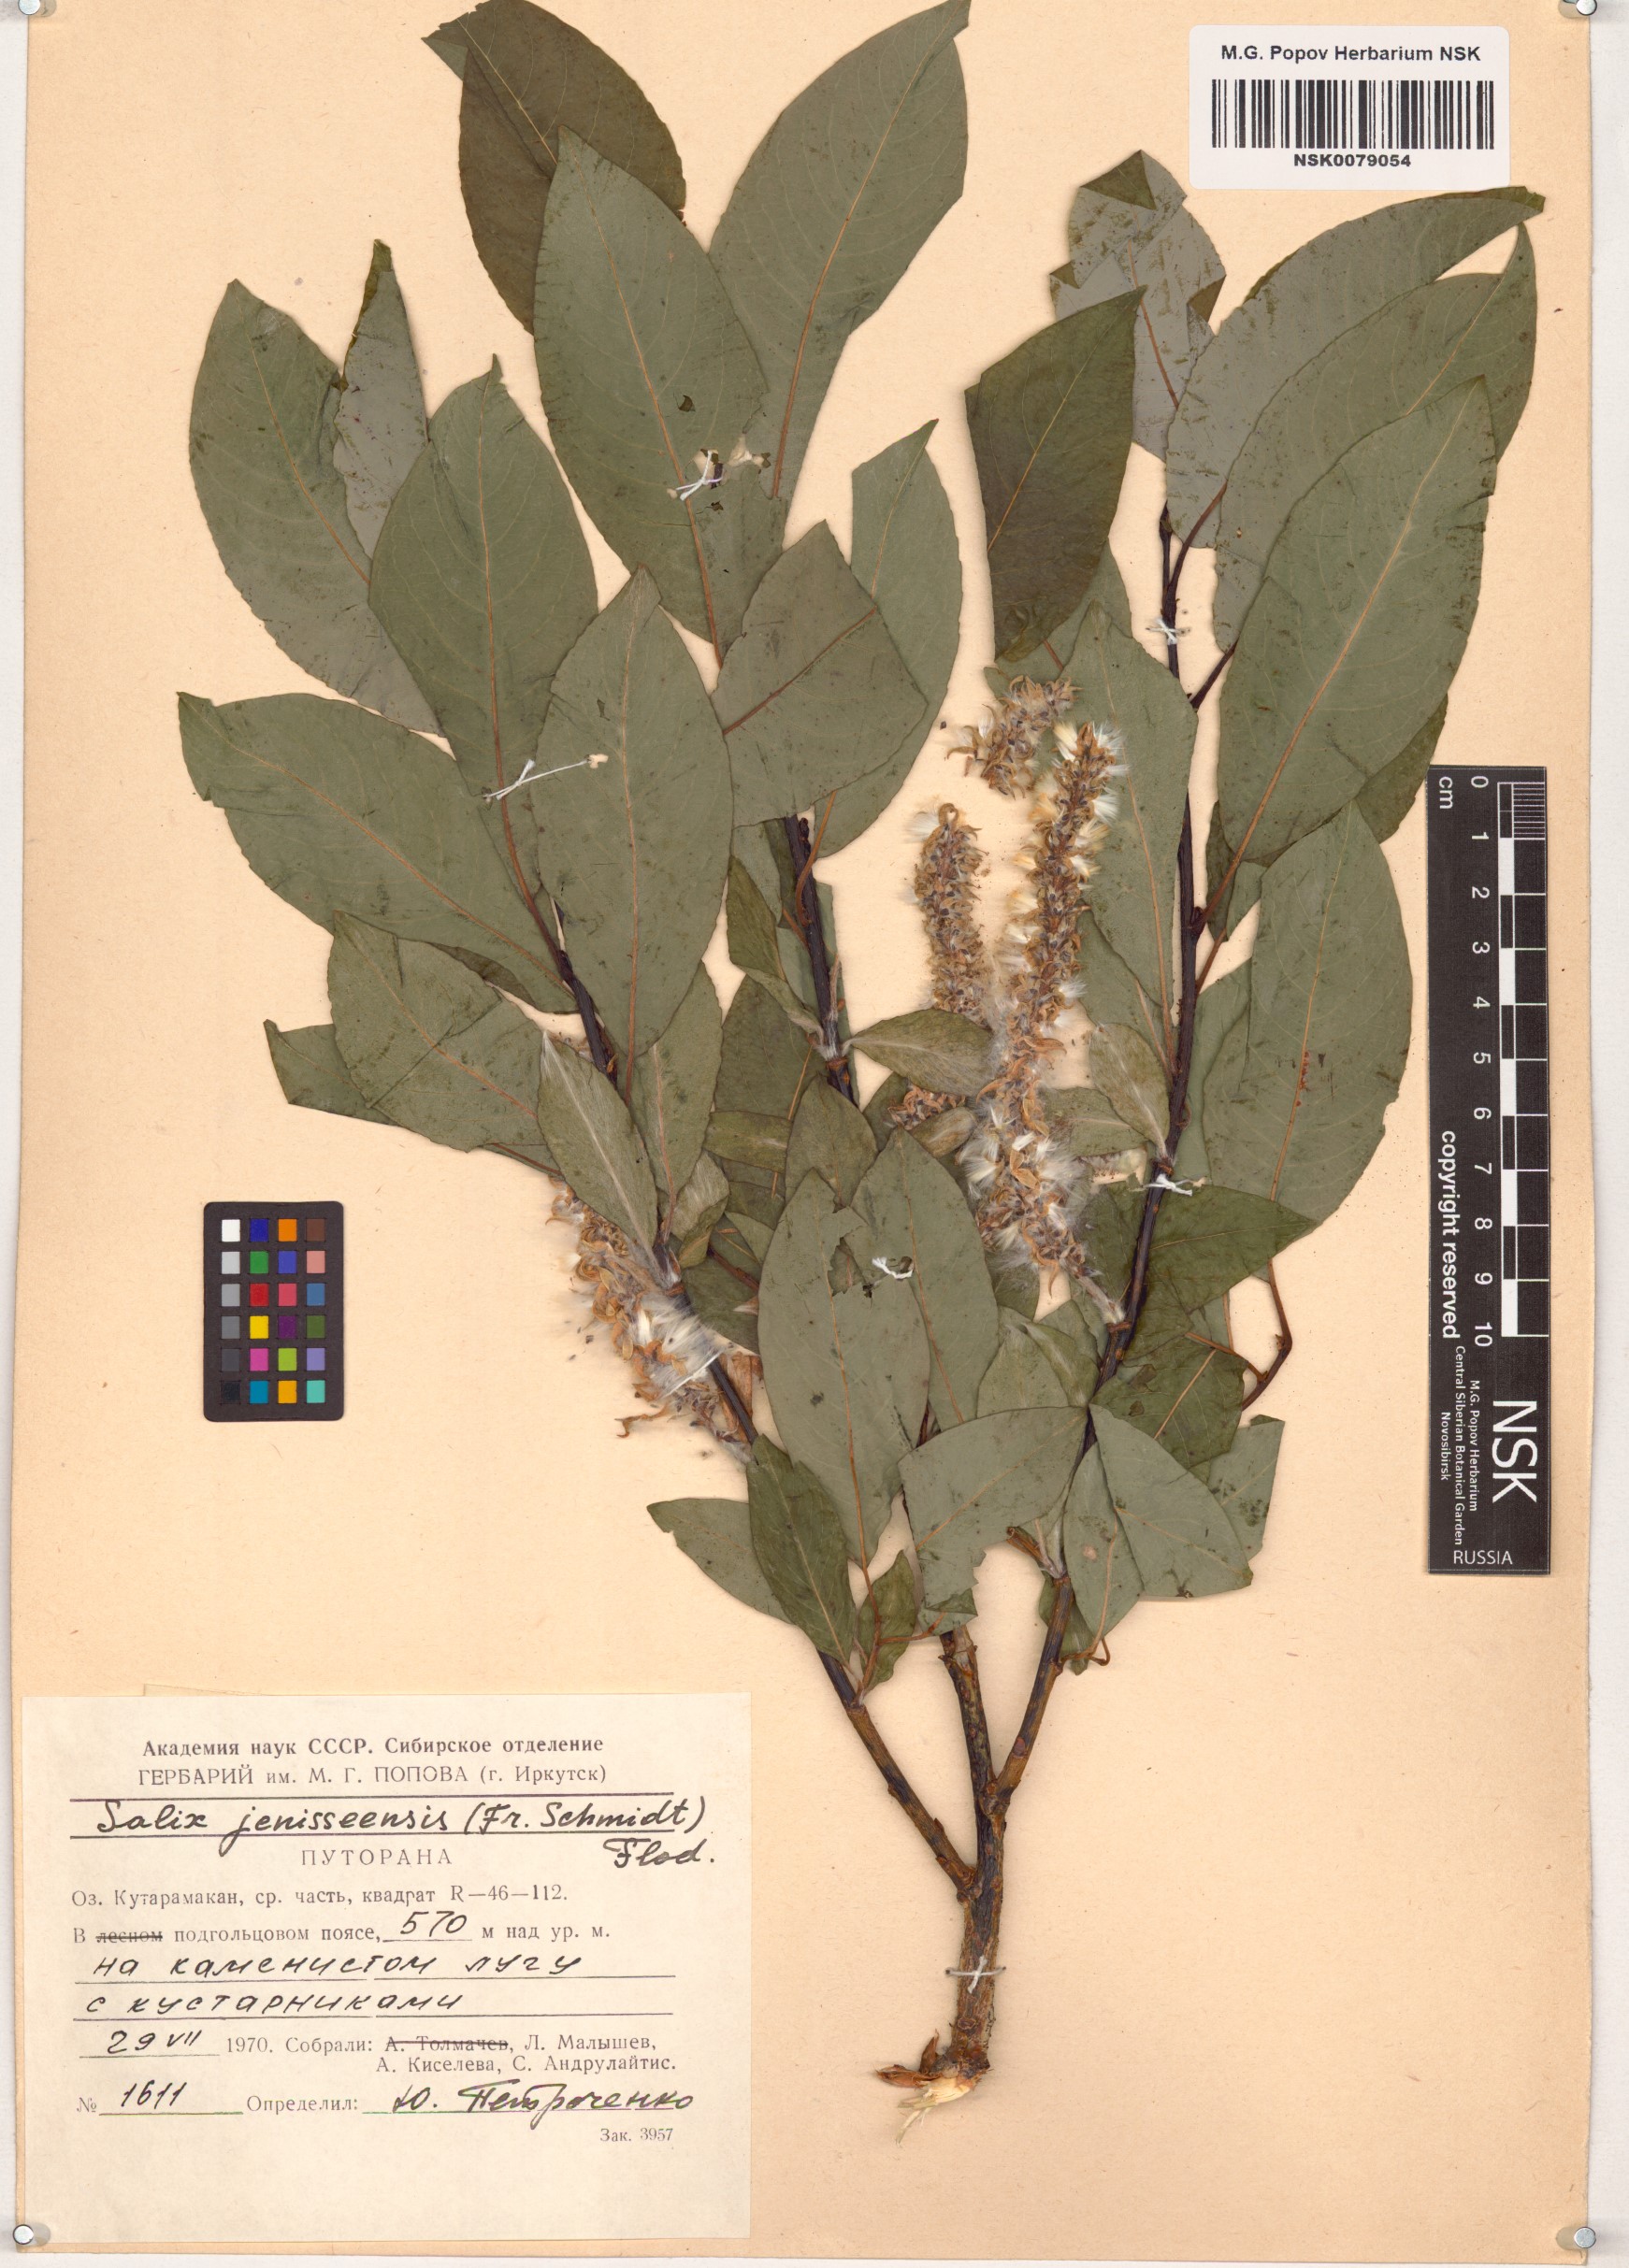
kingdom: Plantae
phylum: Tracheophyta
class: Magnoliopsida
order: Malpighiales
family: Salicaceae
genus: Salix
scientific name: Salix jenisseensis
